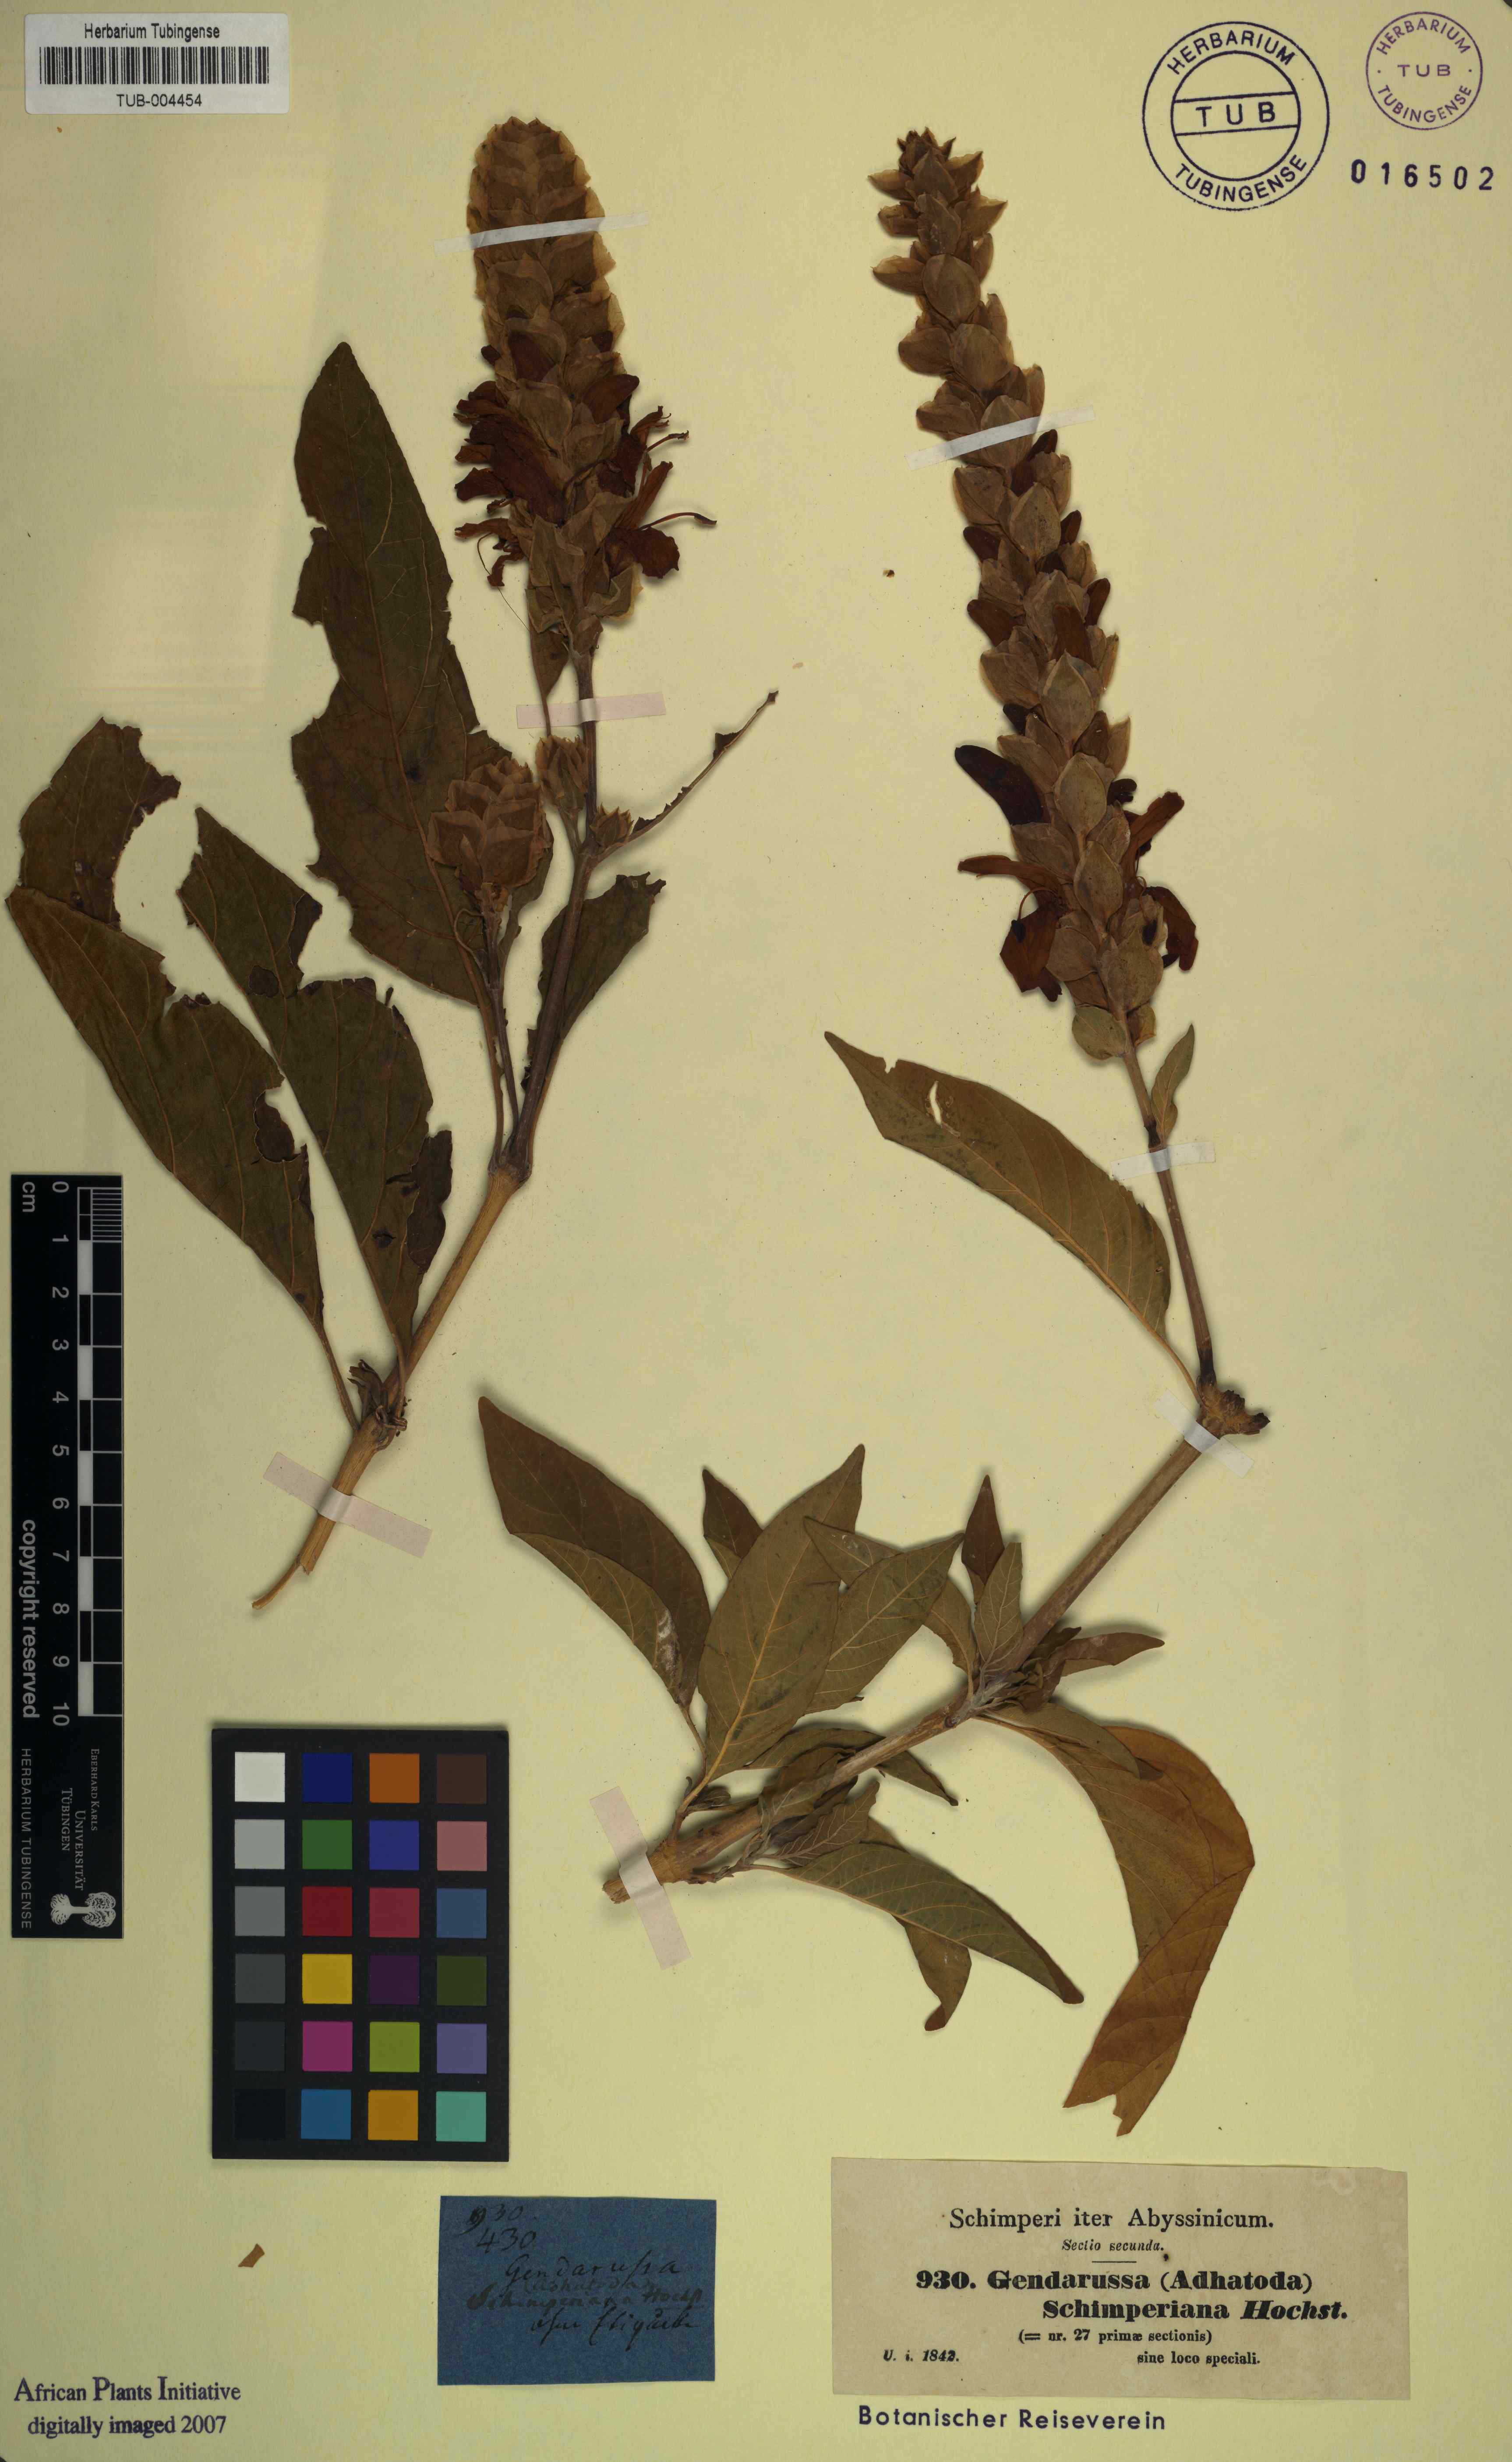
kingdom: Plantae
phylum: Tracheophyta
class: Magnoliopsida
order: Lamiales
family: Acanthaceae
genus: Justicia
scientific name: Justicia schimperiana
